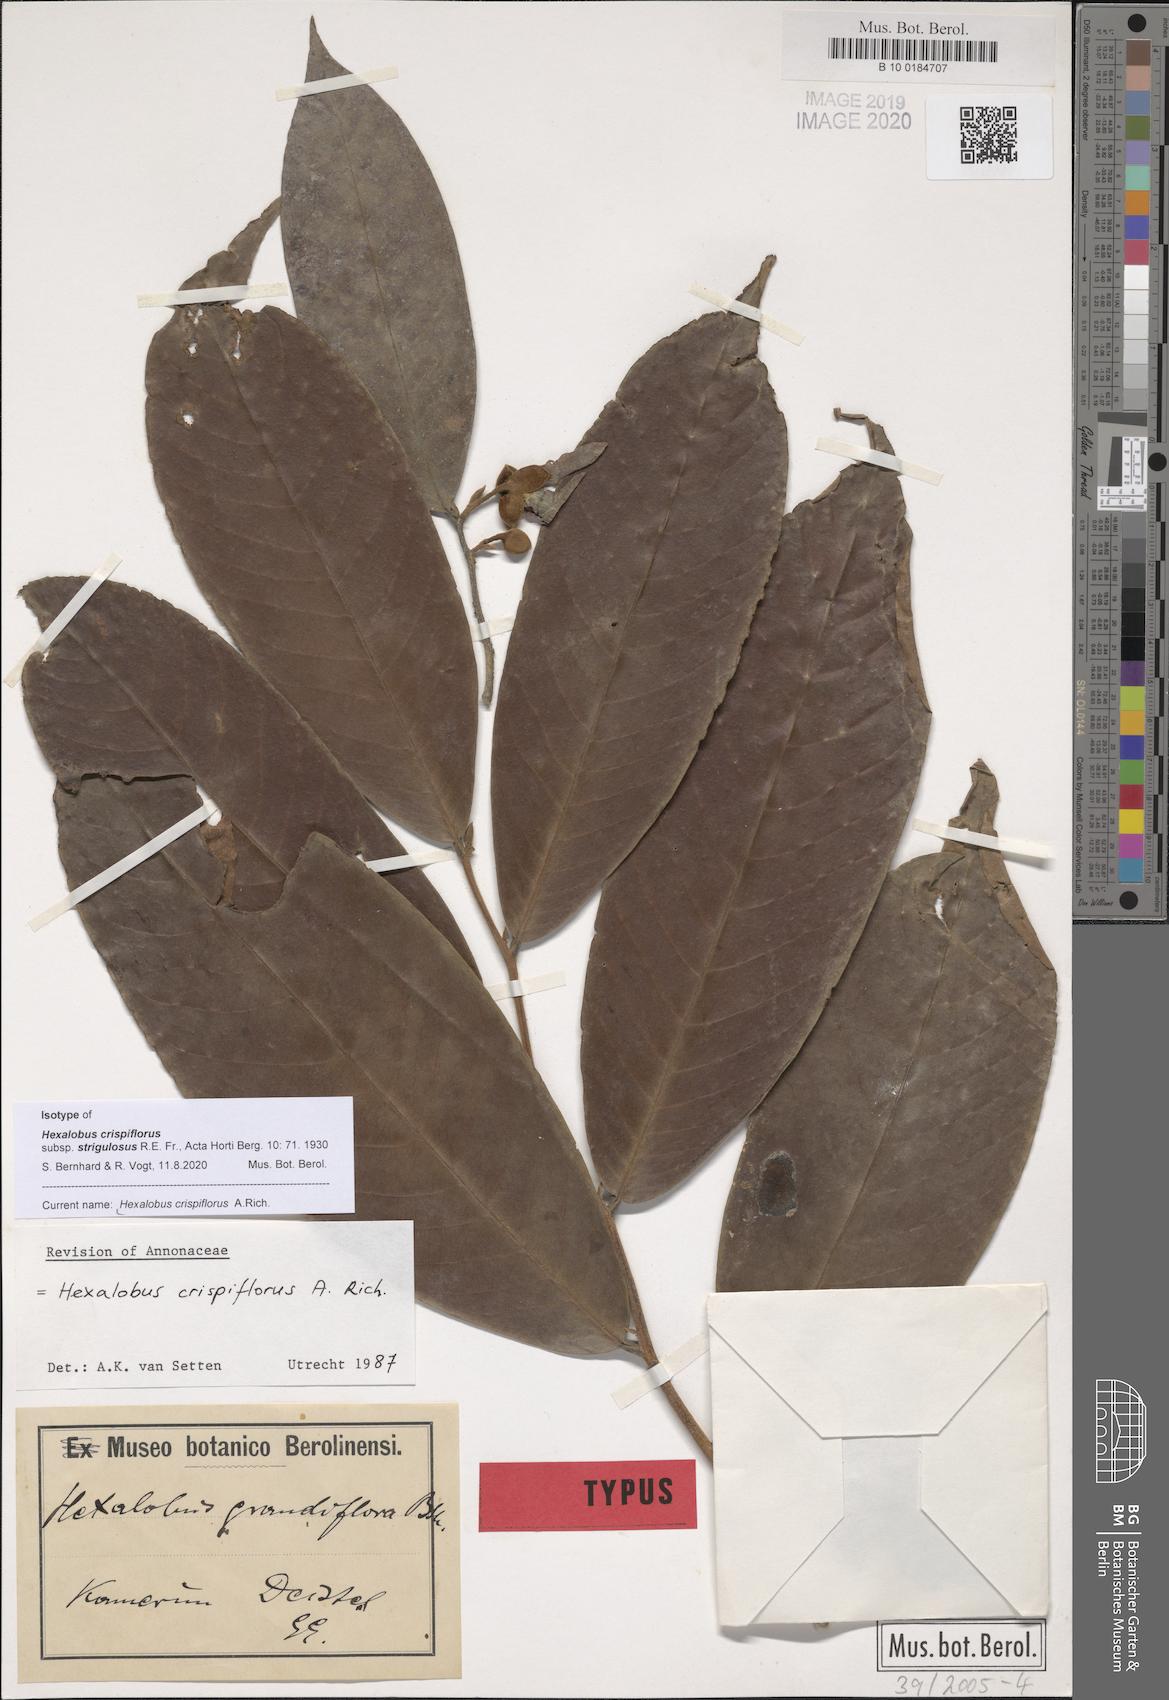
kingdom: Plantae
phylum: Tracheophyta
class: Magnoliopsida
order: Magnoliales
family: Annonaceae
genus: Hexalobus
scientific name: Hexalobus crispiflorus
